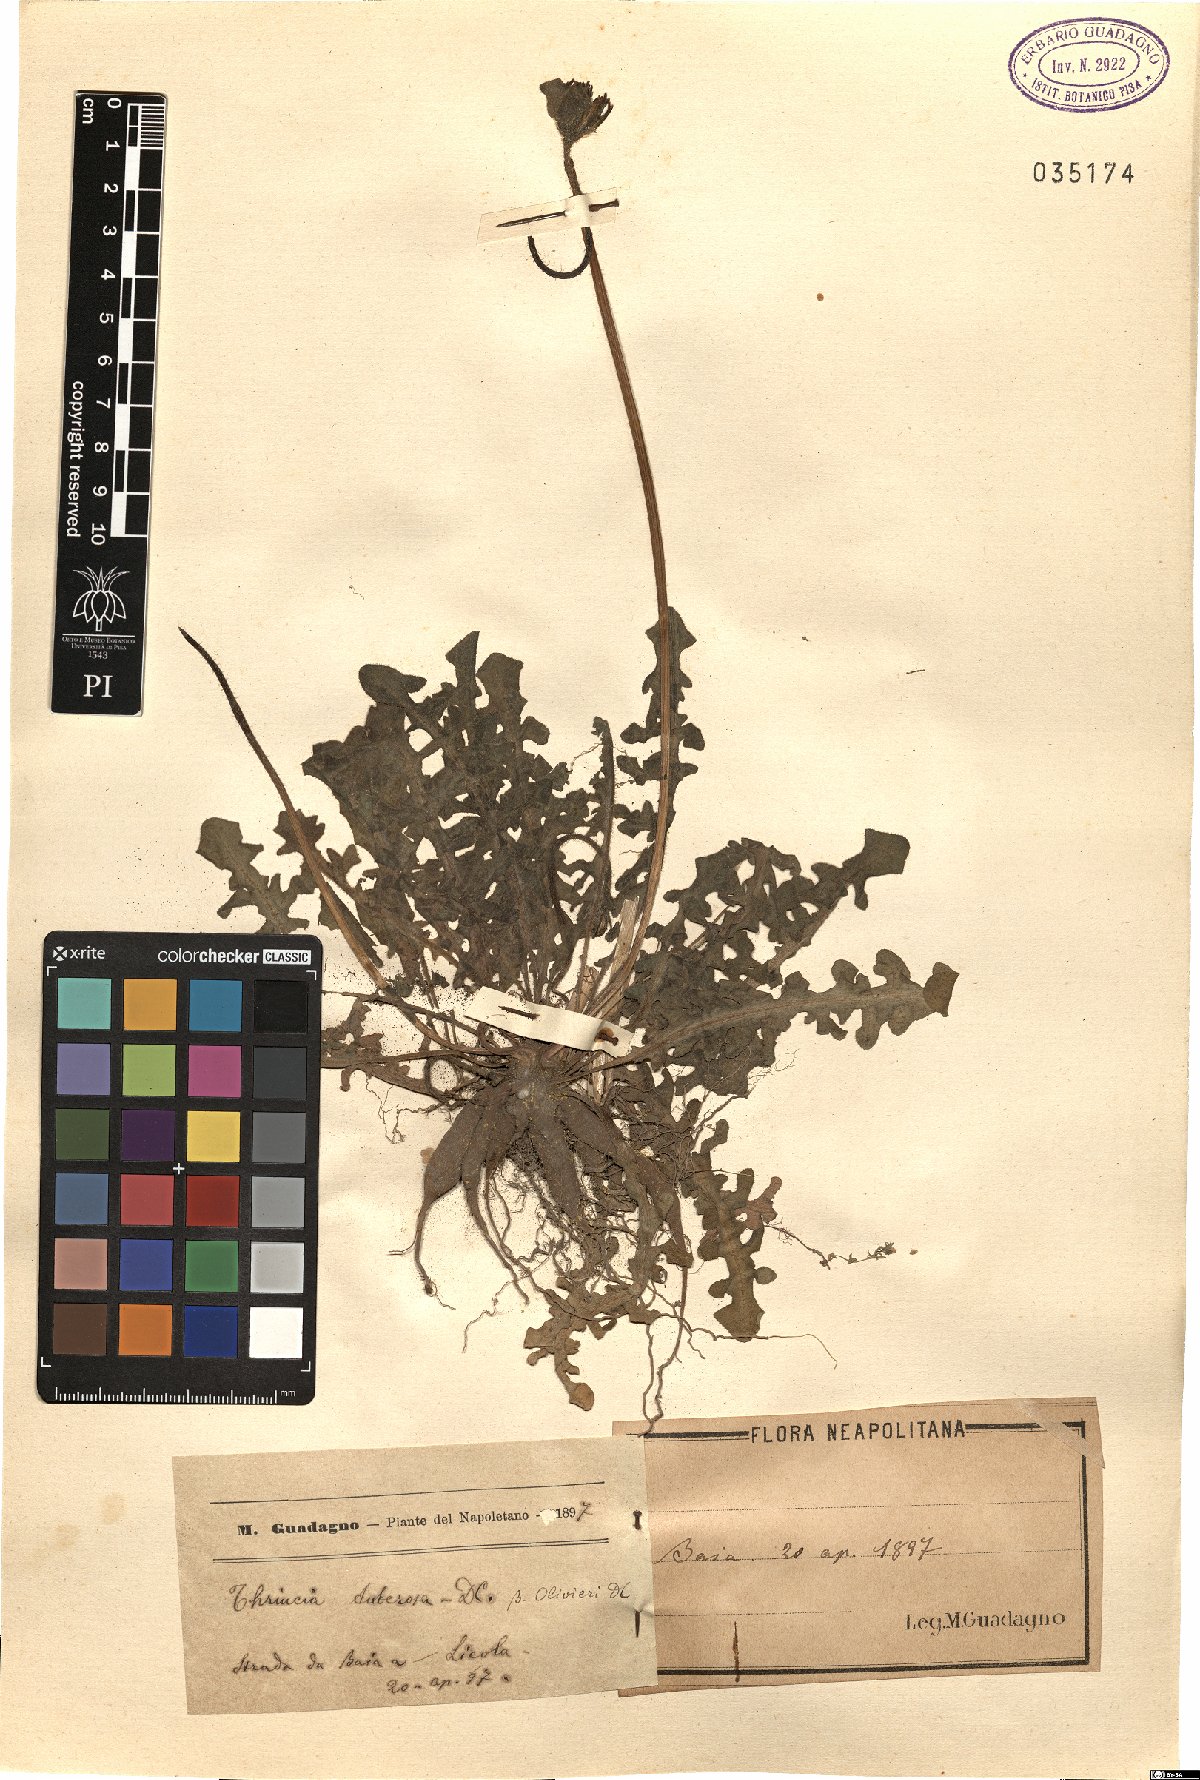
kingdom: Plantae
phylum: Tracheophyta
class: Magnoliopsida
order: Asterales
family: Asteraceae
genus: Thrincia
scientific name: Thrincia tuberosa
